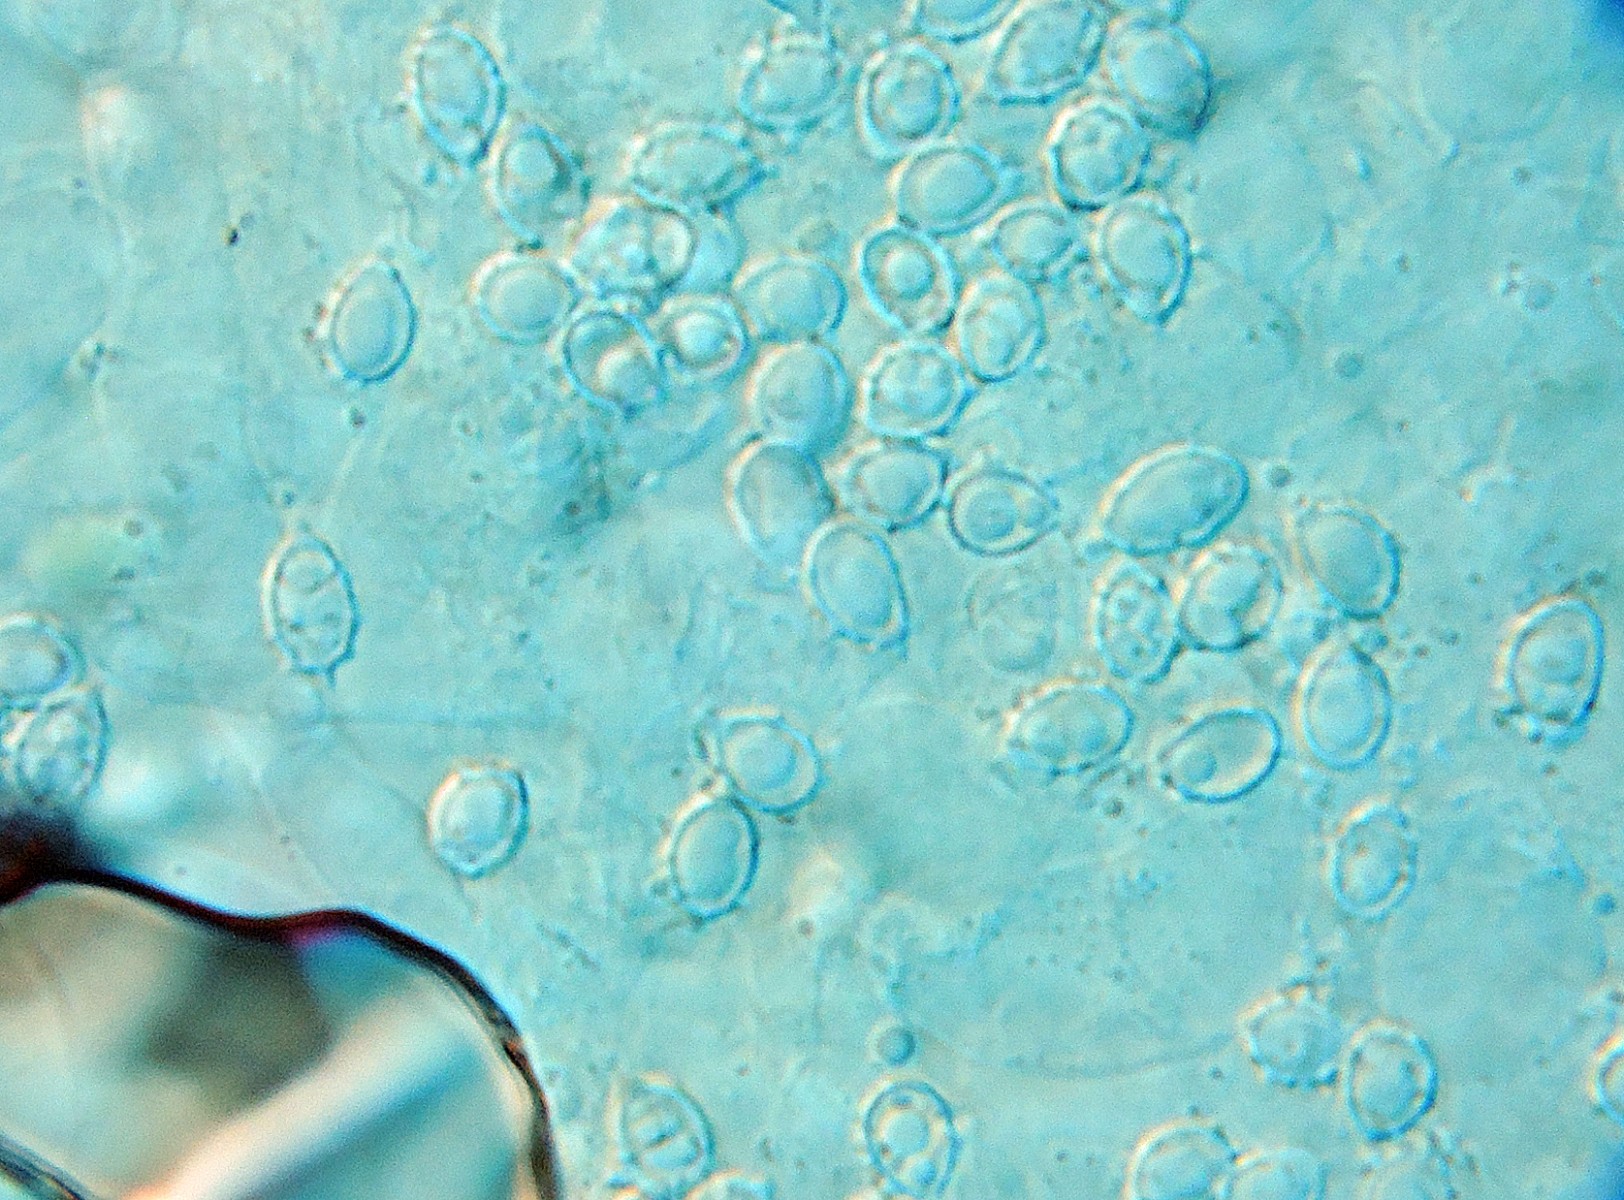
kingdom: Fungi
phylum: Basidiomycota
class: Agaricomycetes
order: Agaricales
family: Stephanosporaceae
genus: Lindtneria
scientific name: Lindtneria flava
